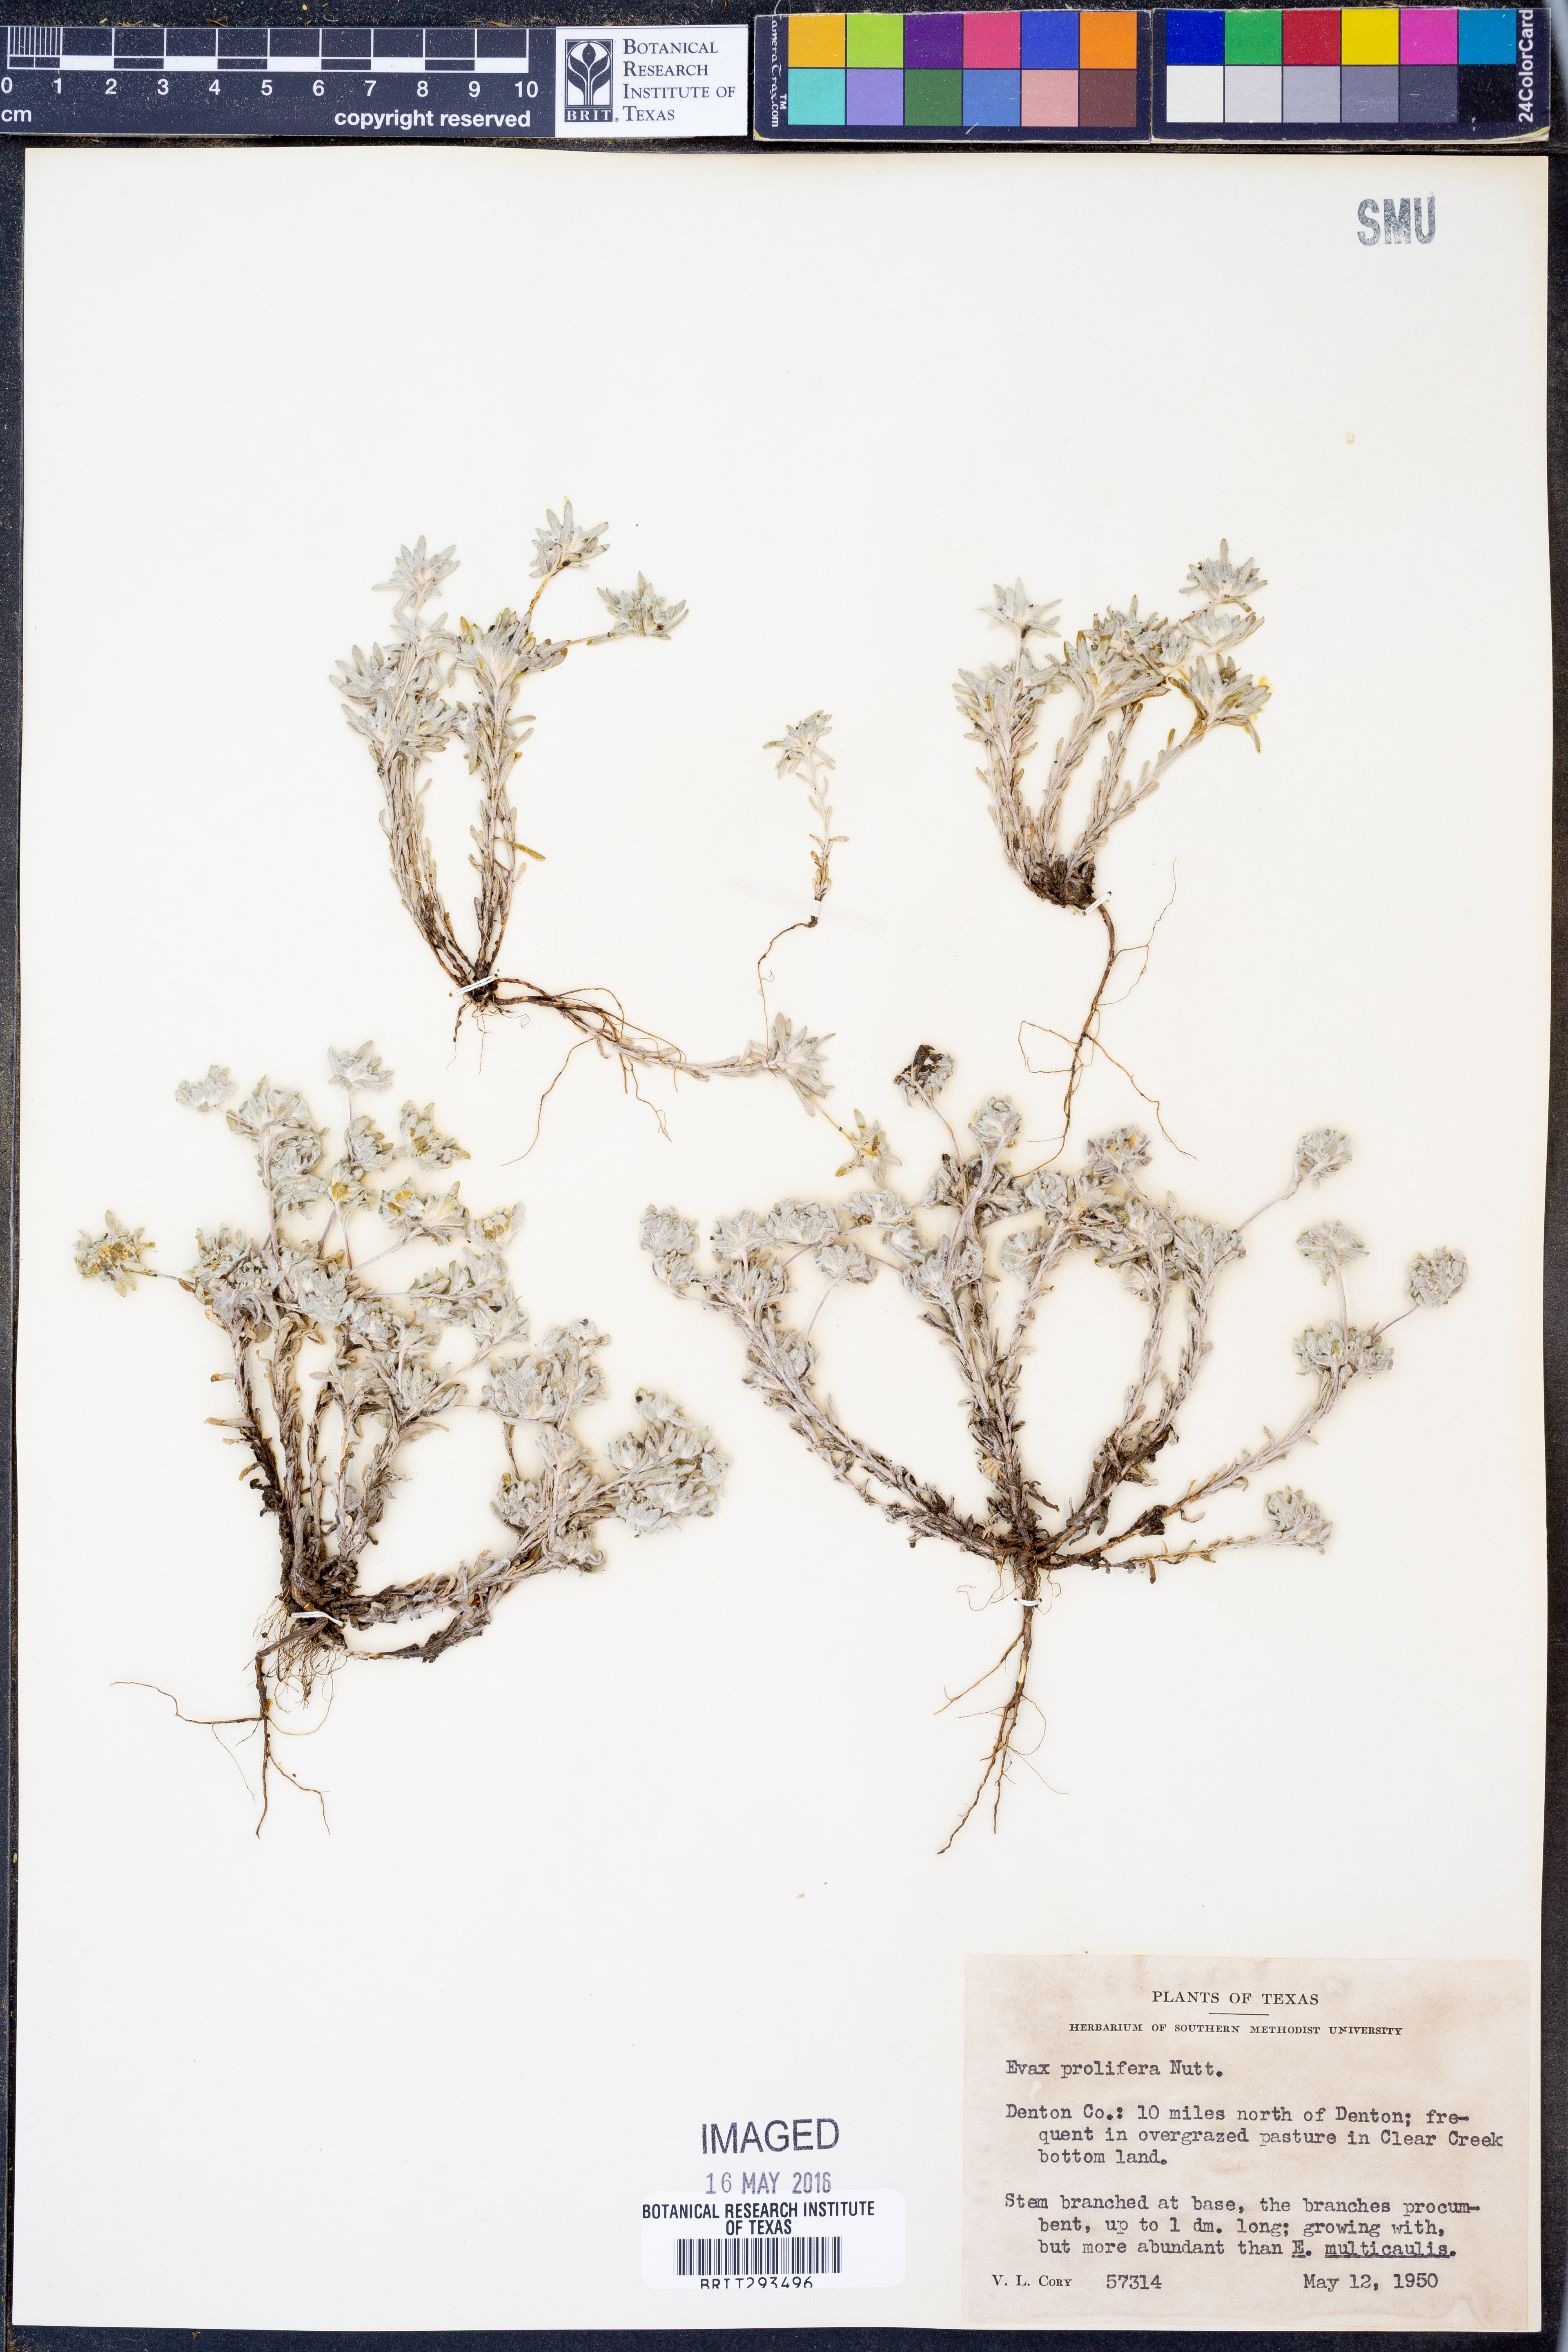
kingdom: Plantae
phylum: Tracheophyta
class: Magnoliopsida
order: Asterales
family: Asteraceae
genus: Diaperia
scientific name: Diaperia prolifera
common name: Big-head rabbit-tobacco
